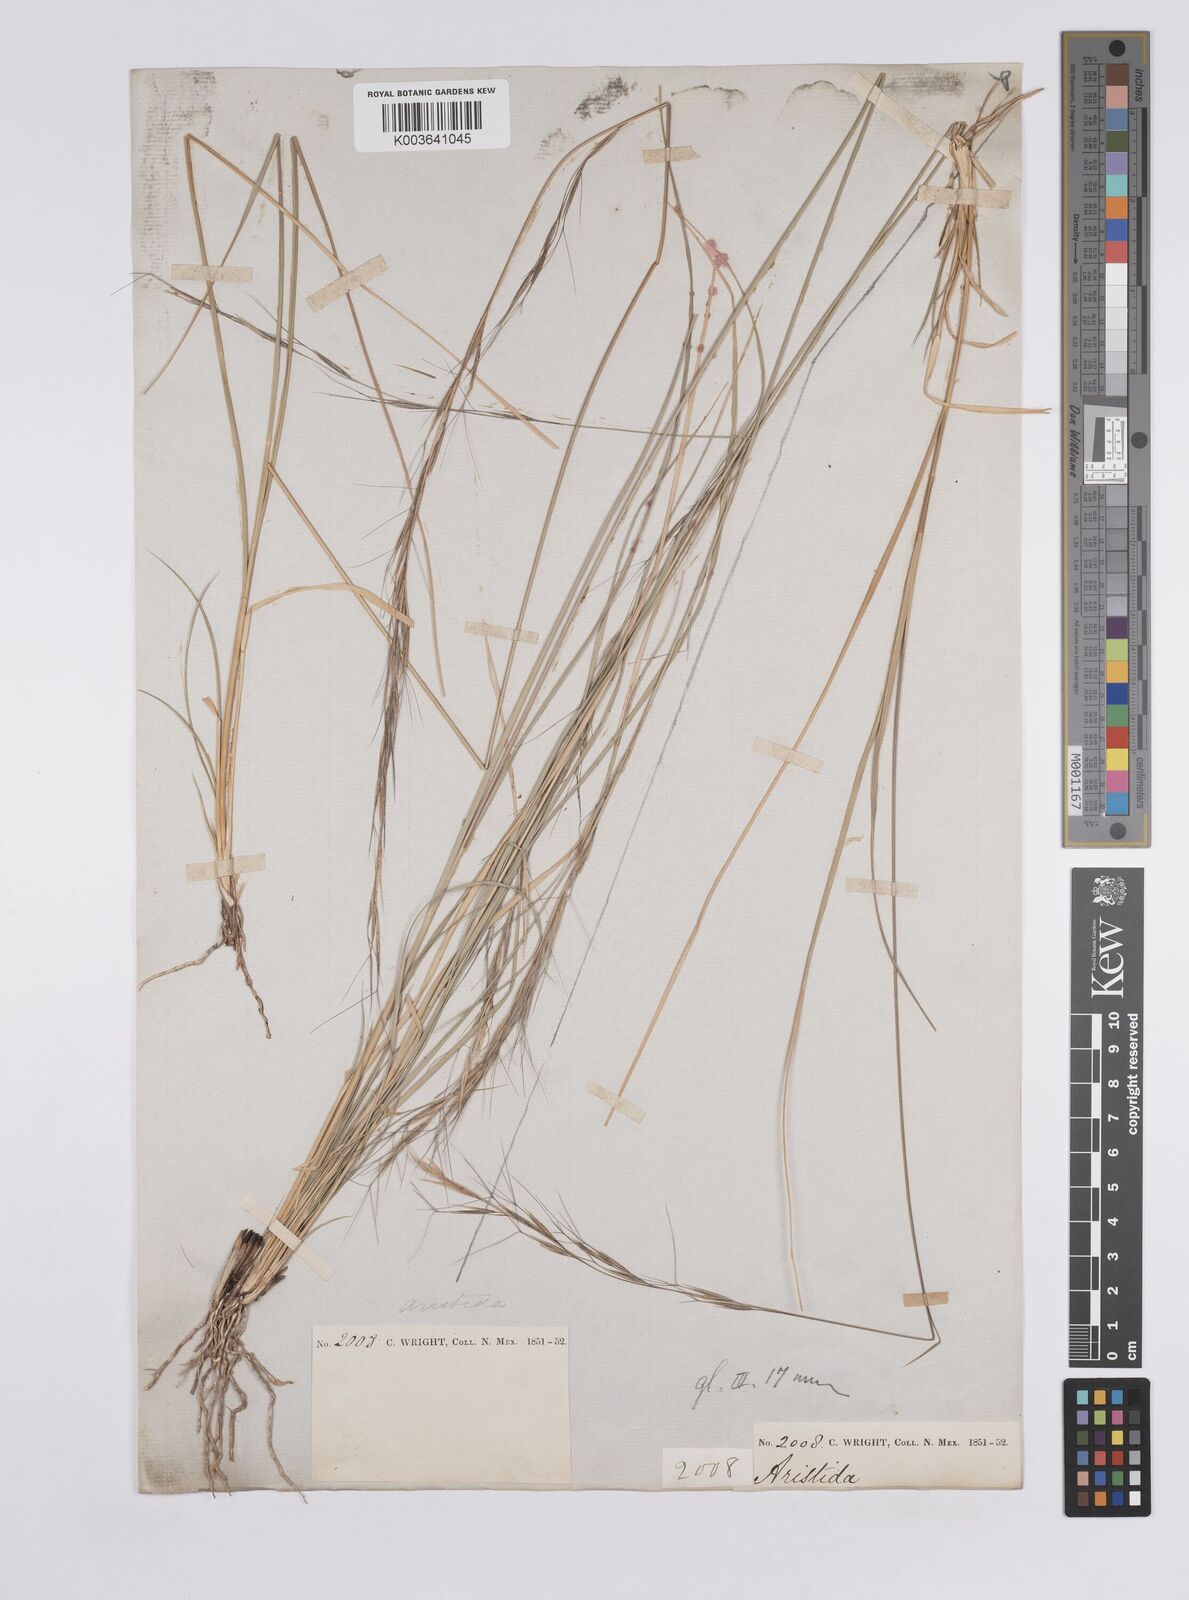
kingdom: Plantae
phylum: Tracheophyta
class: Liliopsida
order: Poales
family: Poaceae
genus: Aristida
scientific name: Aristida arizonica
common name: Arizona threeawn
